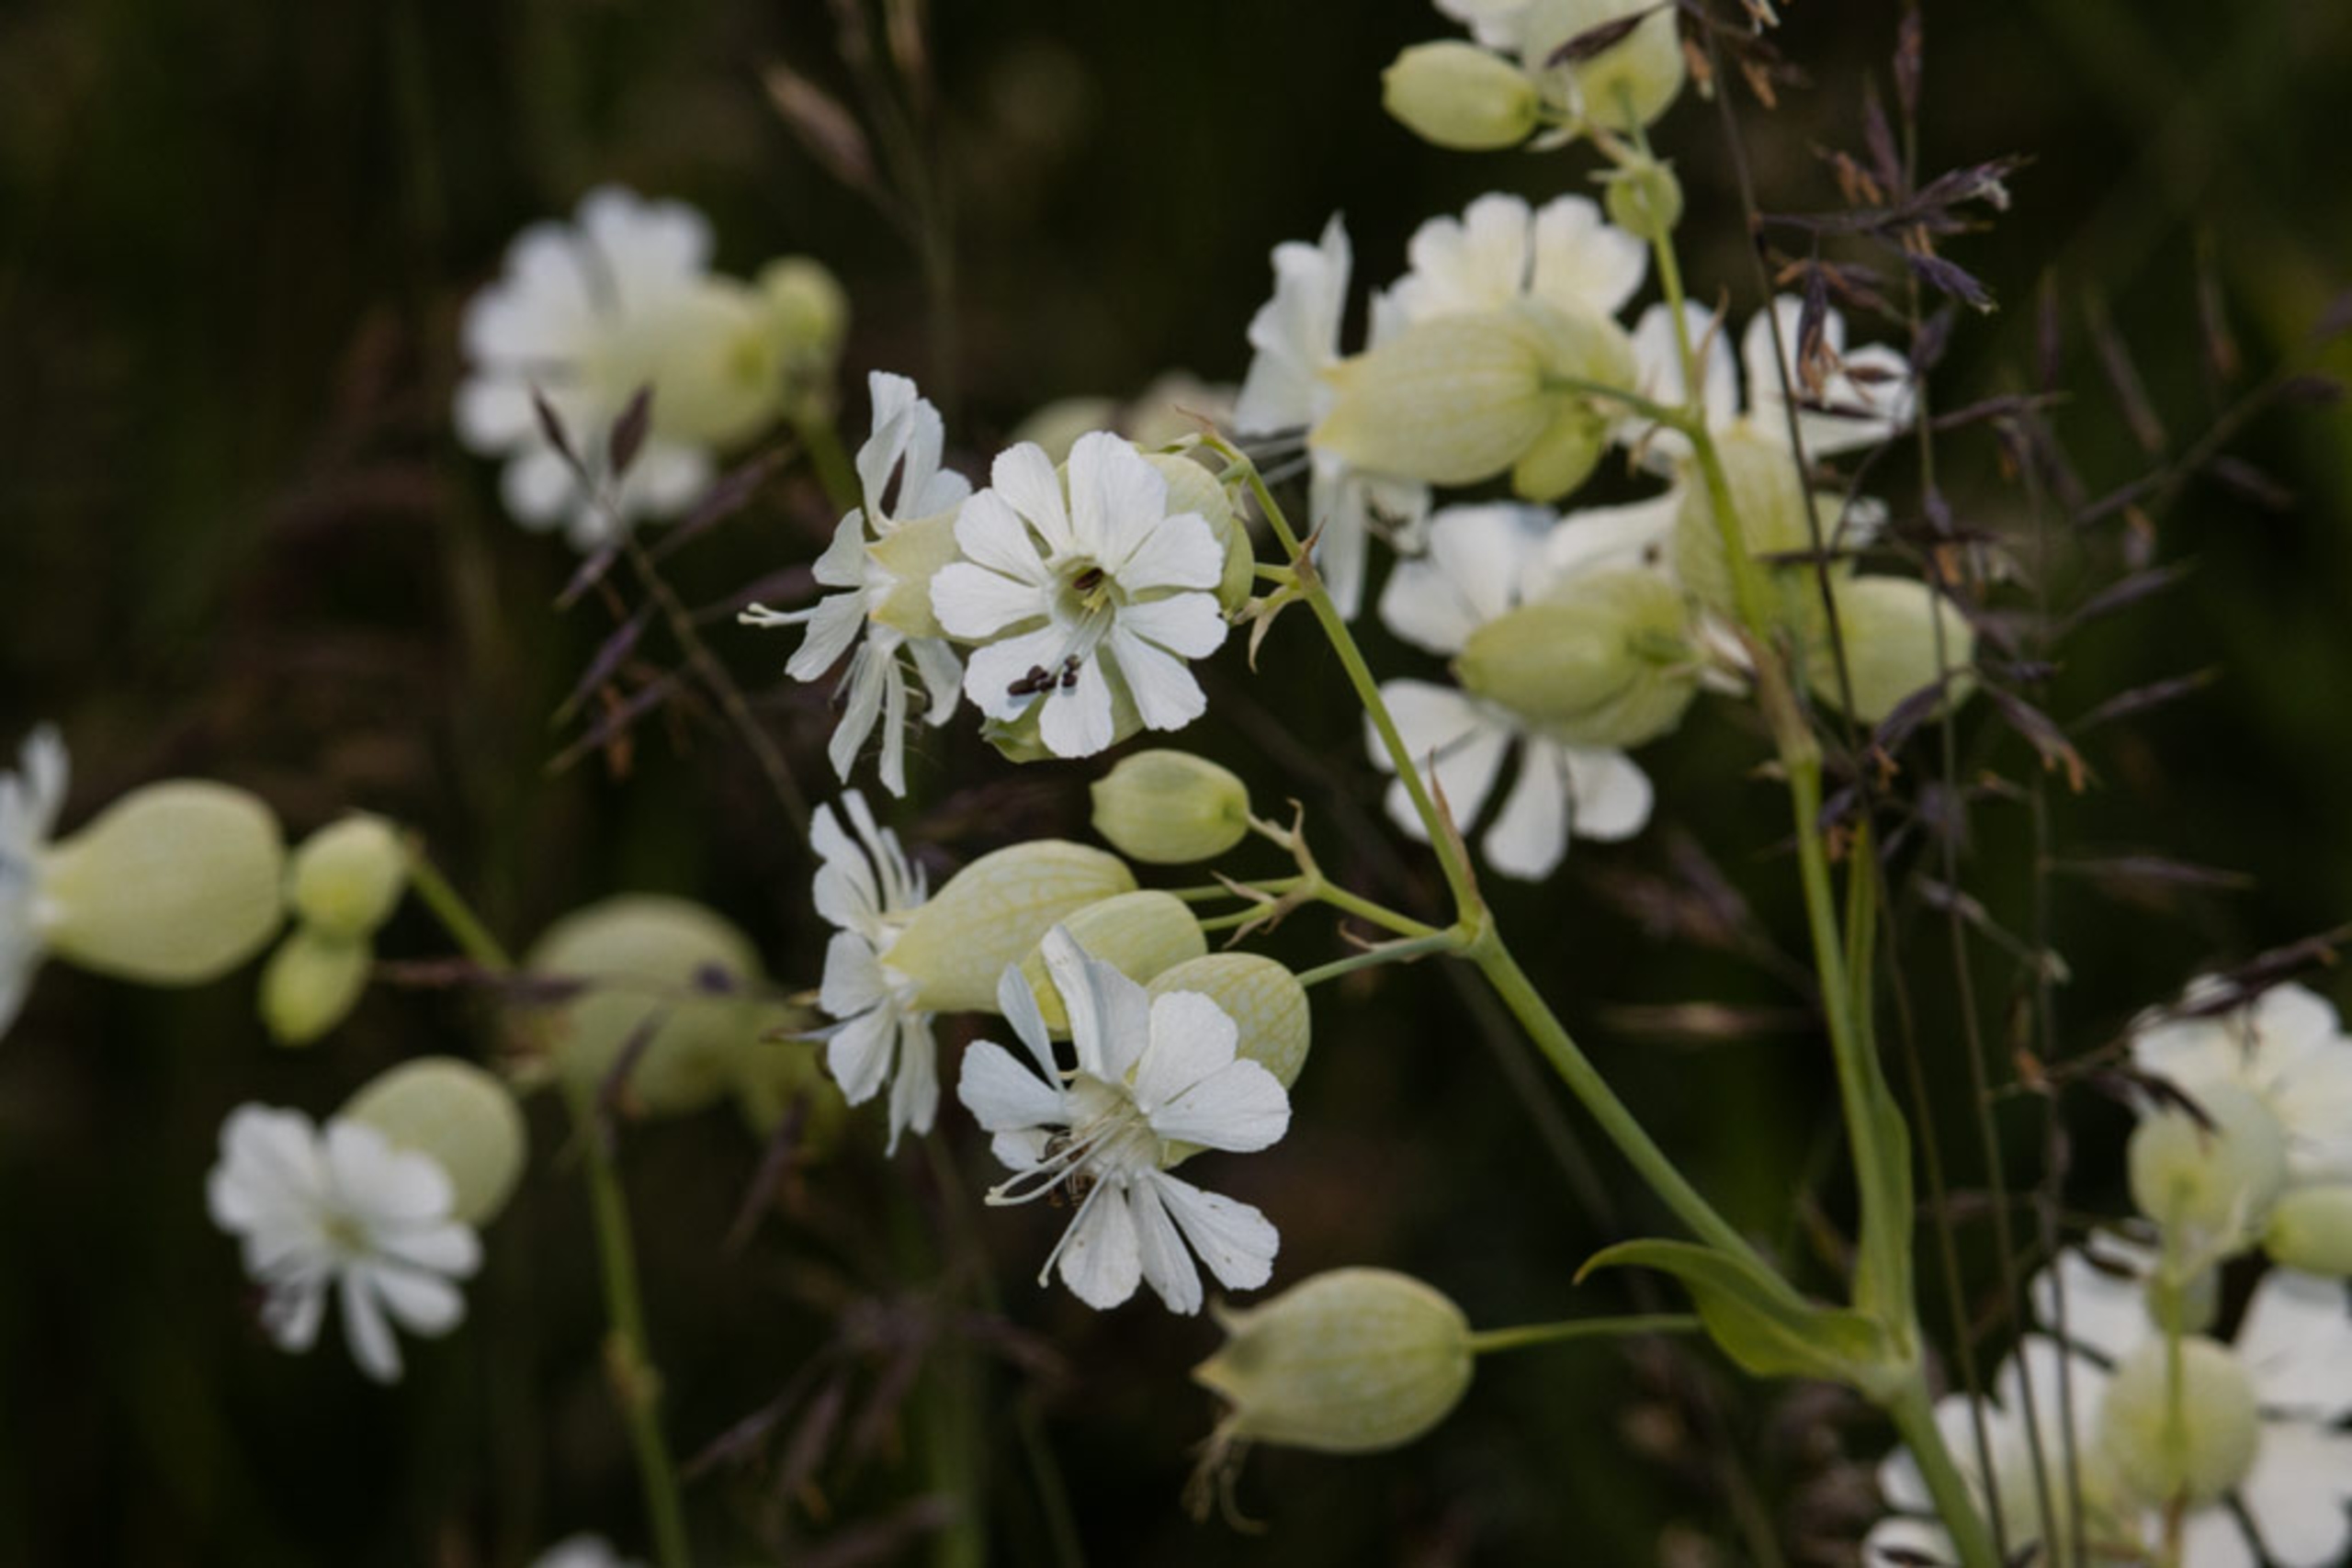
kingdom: Plantae
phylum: Tracheophyta
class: Magnoliopsida
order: Caryophyllales
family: Caryophyllaceae
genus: Silene
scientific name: Silene vulgaris
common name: Blæresmælde
